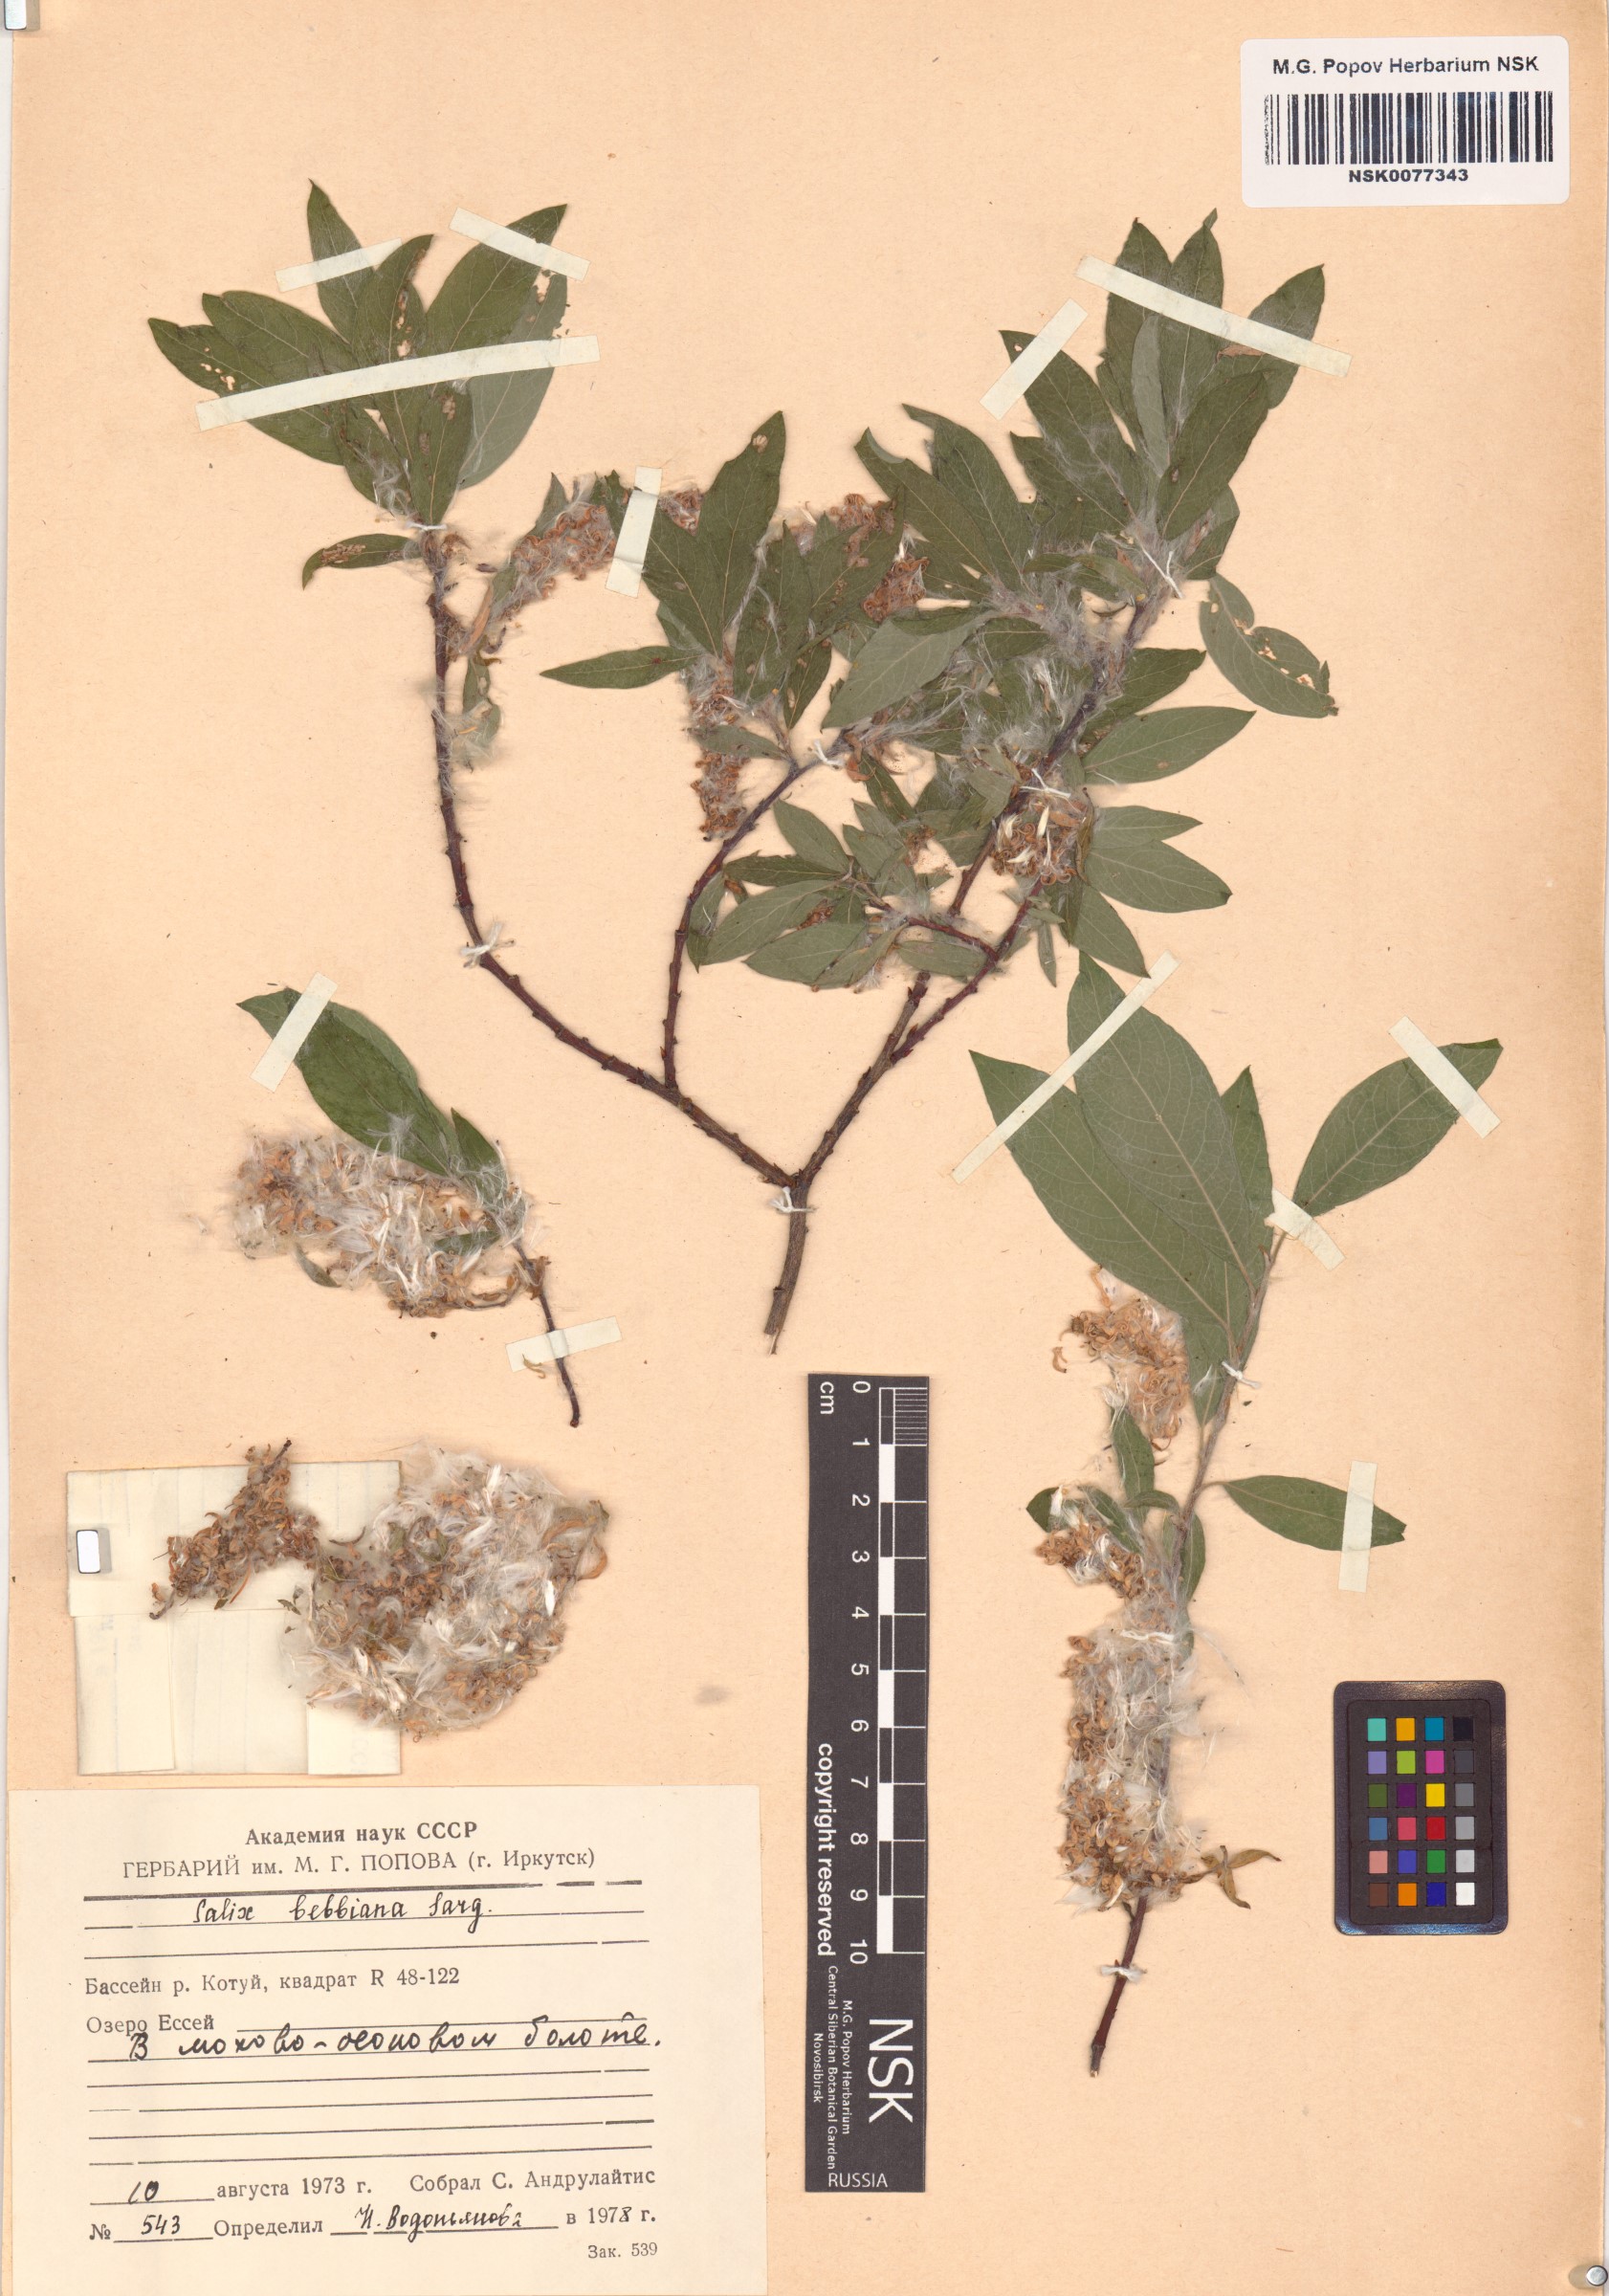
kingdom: Plantae
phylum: Tracheophyta
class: Magnoliopsida
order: Malpighiales
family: Salicaceae
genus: Salix
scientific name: Salix bebbiana
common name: Bebb's willow
